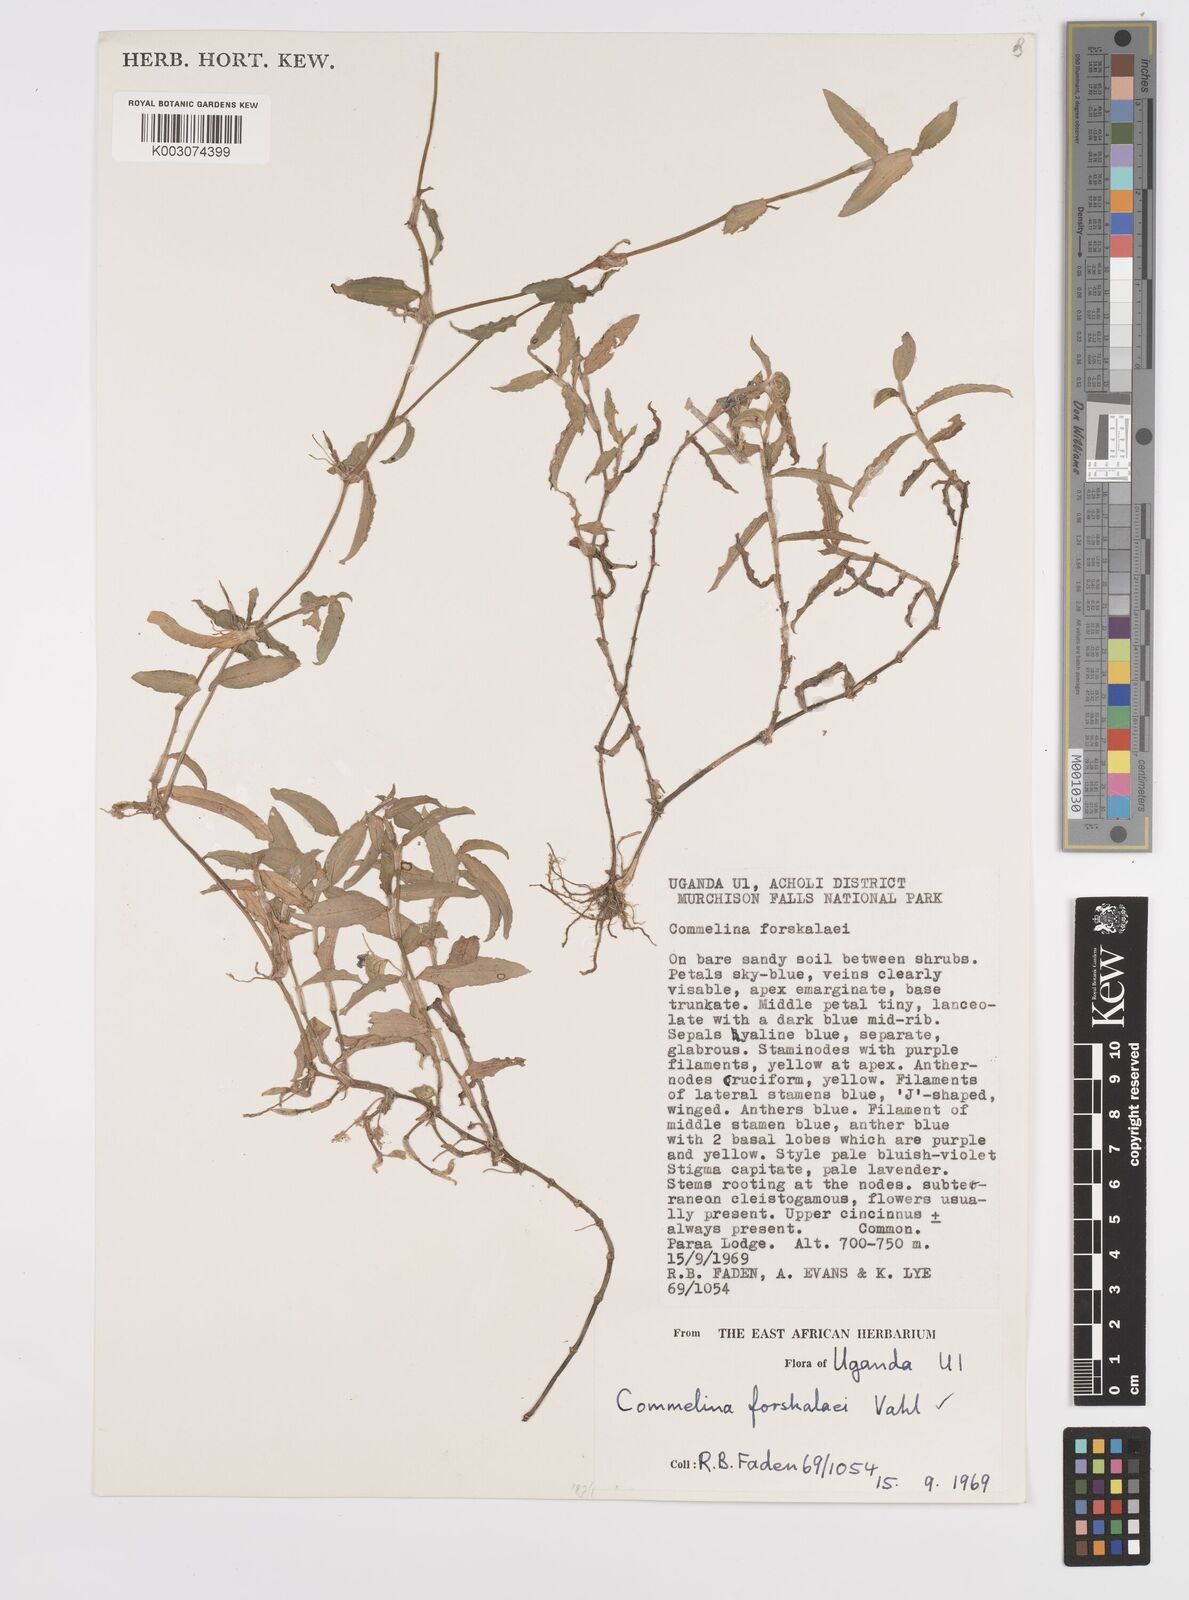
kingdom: Plantae
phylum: Tracheophyta
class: Liliopsida
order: Commelinales
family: Commelinaceae
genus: Commelina
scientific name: Commelina forskaolii
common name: Rat's ear
